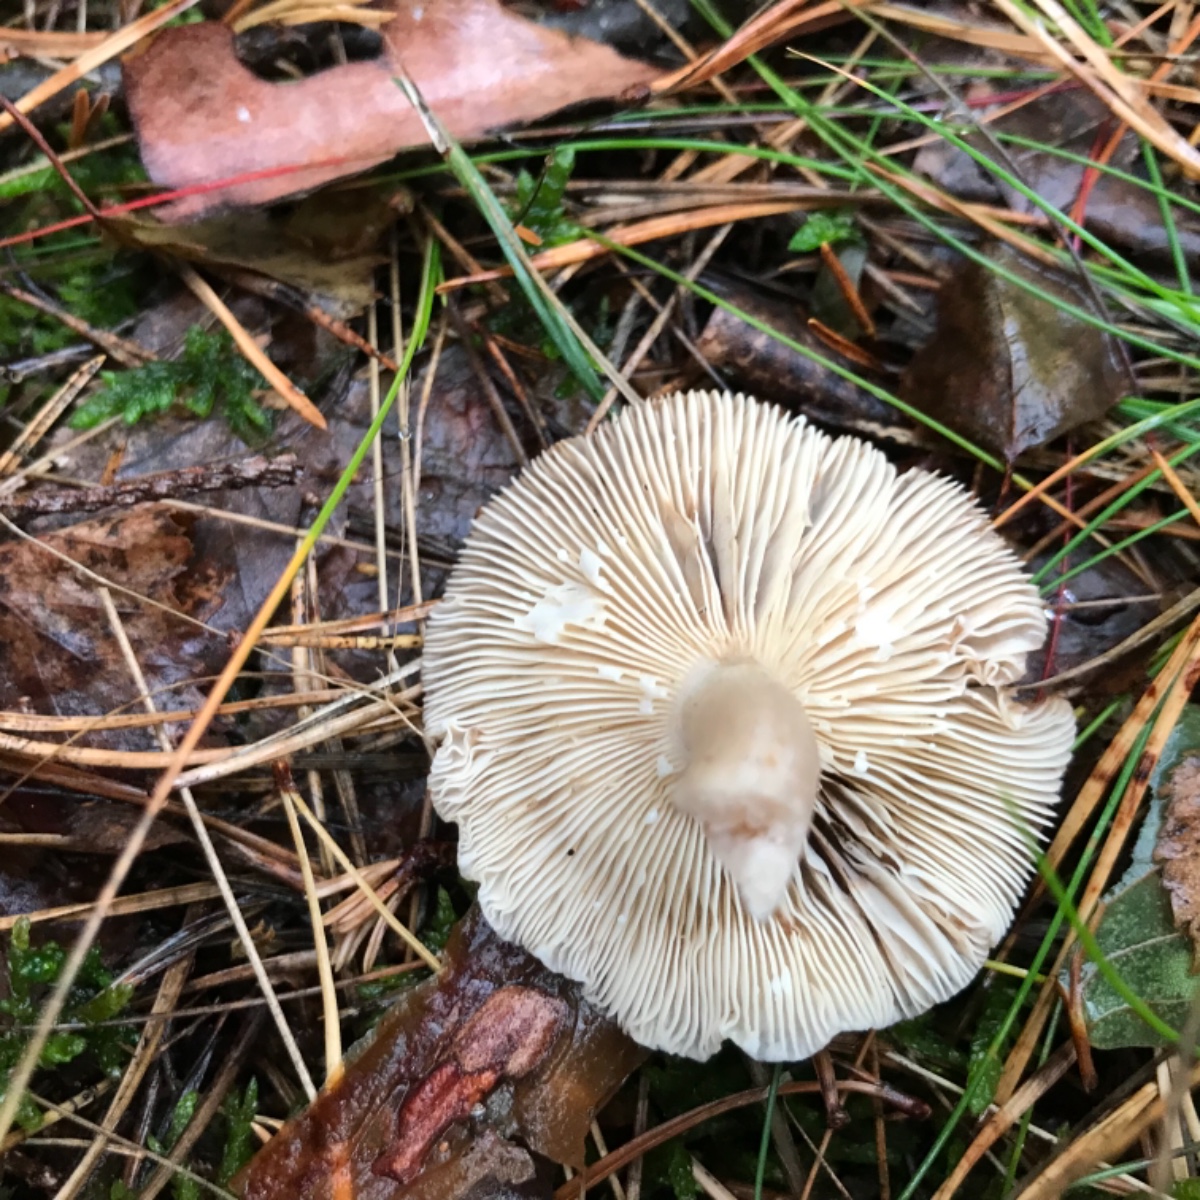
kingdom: Fungi
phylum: Basidiomycota
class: Agaricomycetes
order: Russulales
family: Russulaceae
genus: Lactarius
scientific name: Lactarius vietus
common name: violetgrå mælkehat
